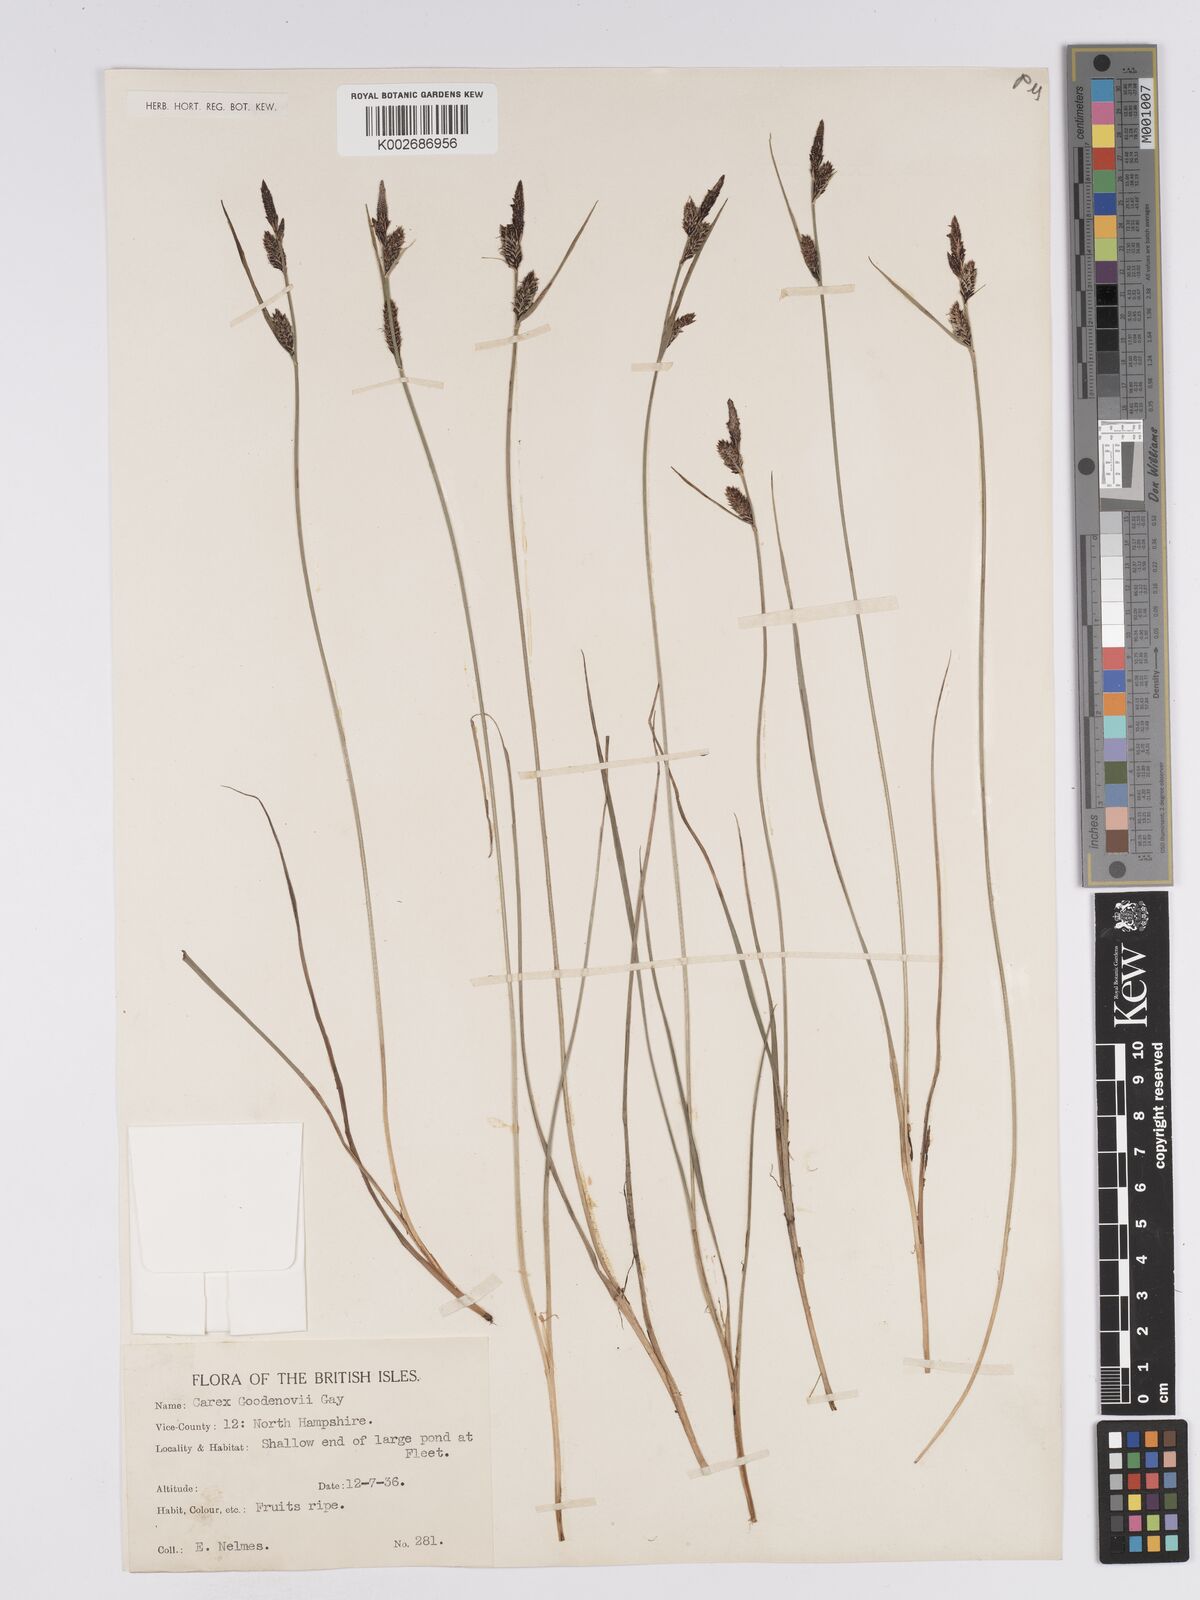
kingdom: Plantae
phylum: Tracheophyta
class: Liliopsida
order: Poales
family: Cyperaceae
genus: Carex
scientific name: Carex nigra
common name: Common sedge
